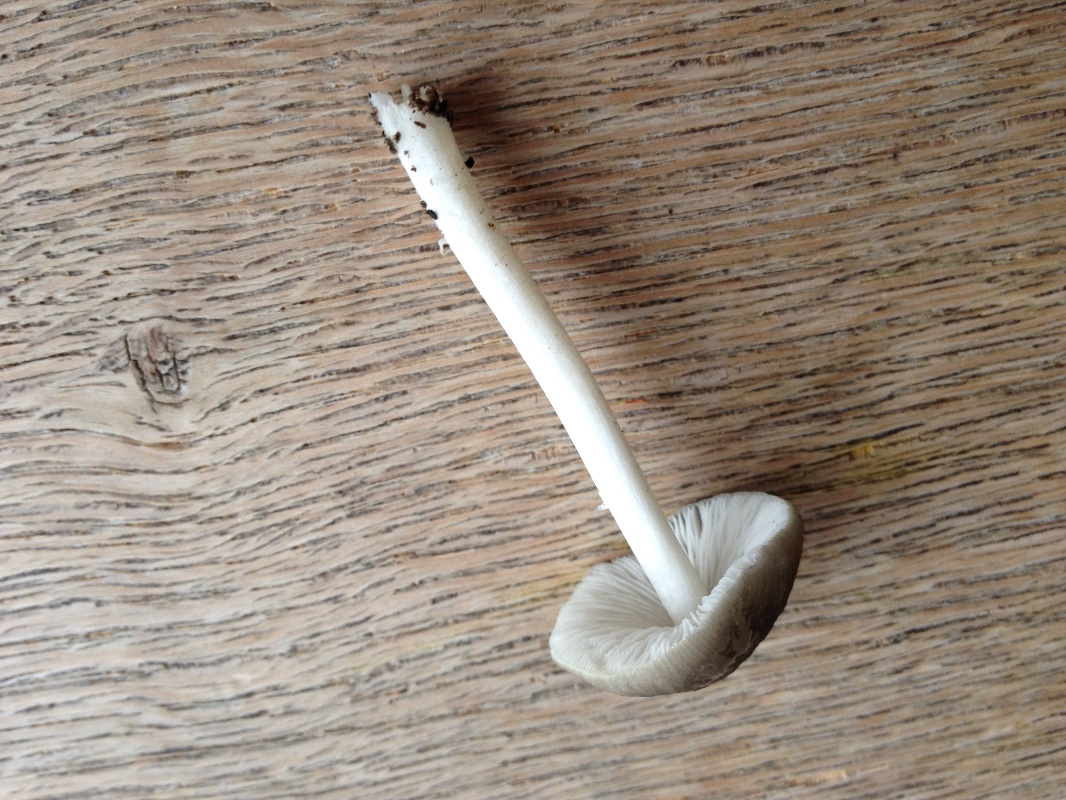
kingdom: Fungi
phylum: Basidiomycota
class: Agaricomycetes
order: Agaricales
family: Pluteaceae
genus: Pluteus
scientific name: Pluteus
